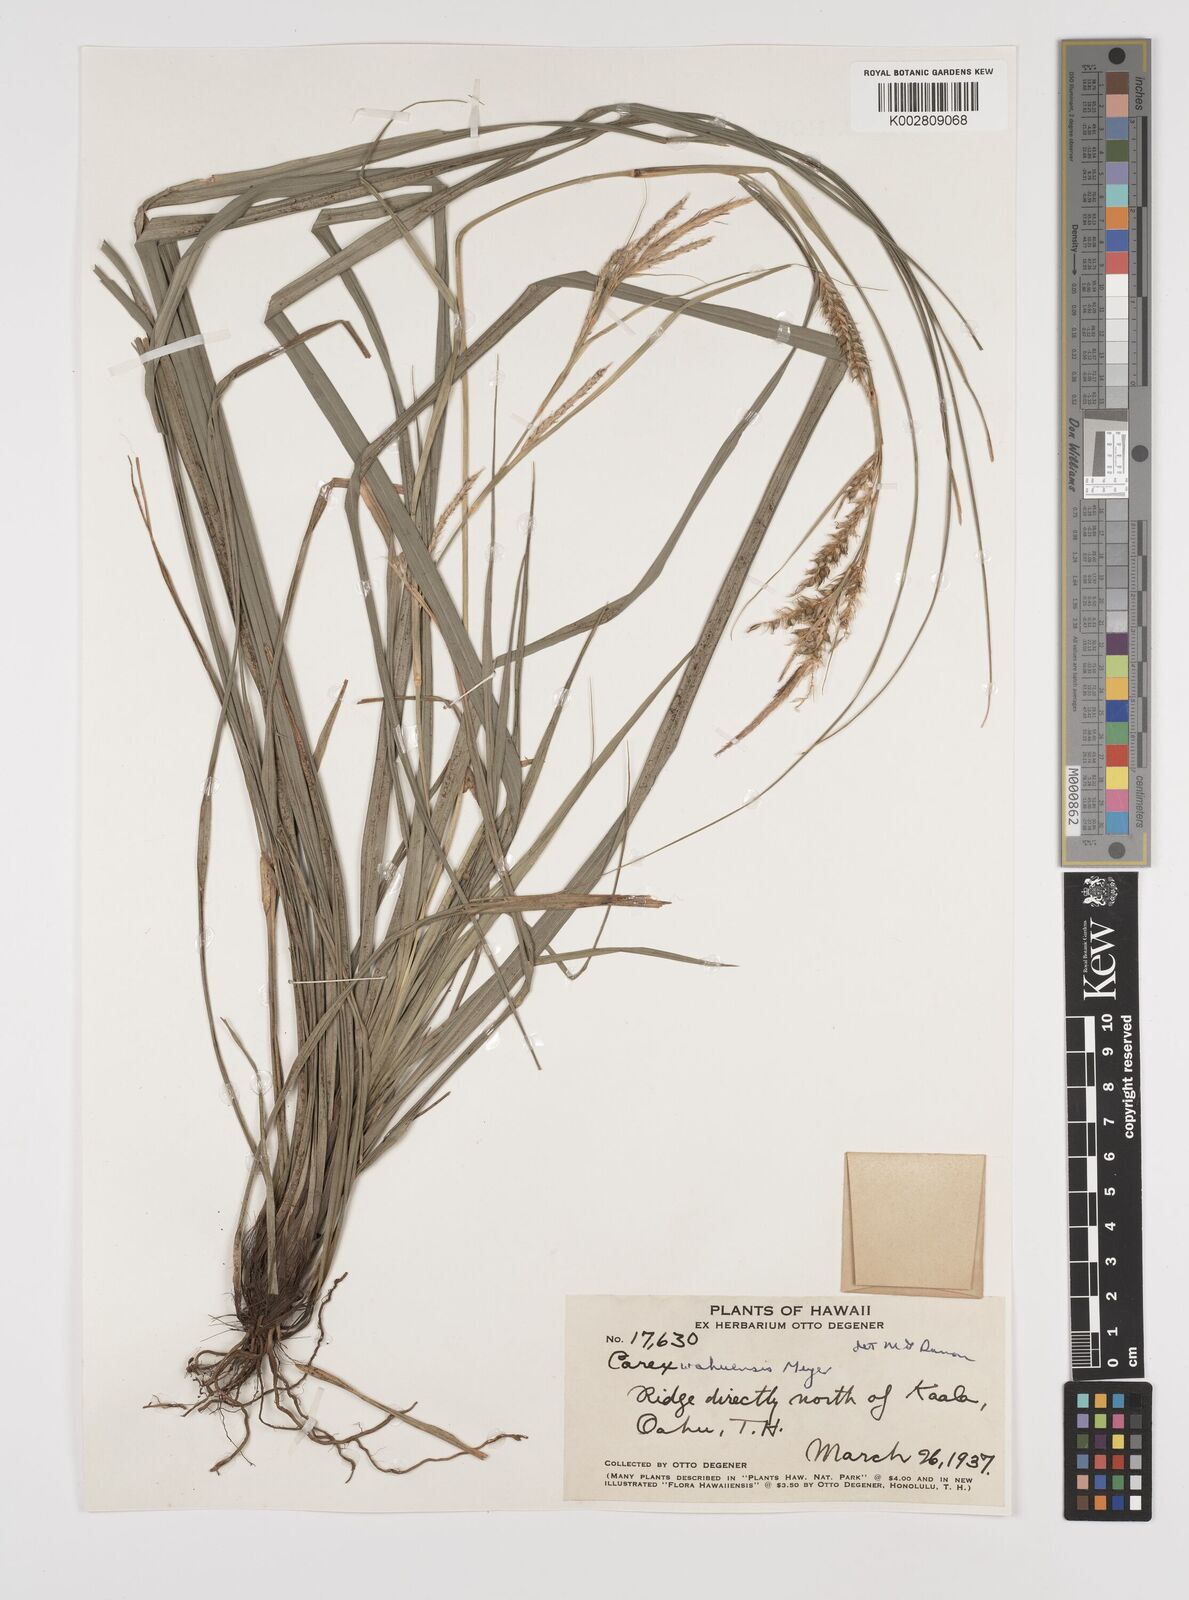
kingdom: Plantae
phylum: Tracheophyta
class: Liliopsida
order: Poales
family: Cyperaceae
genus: Carex
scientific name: Carex wahuensis
